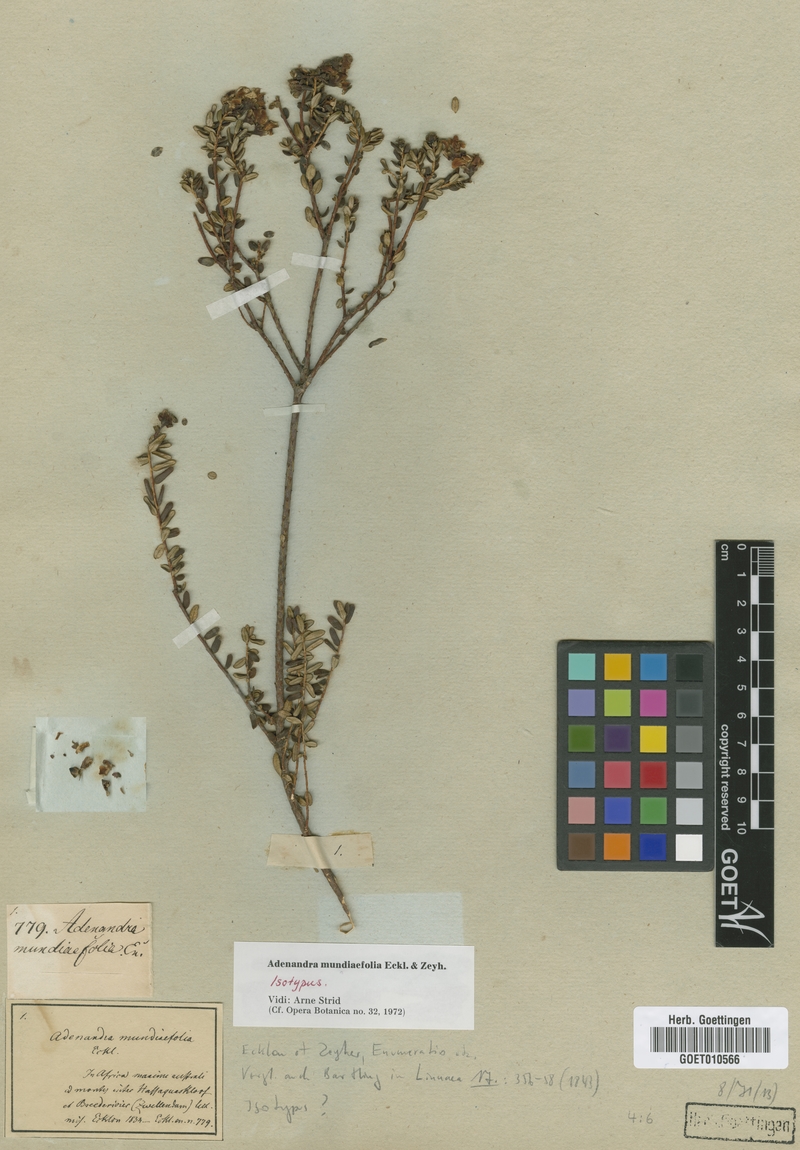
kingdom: Plantae
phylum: Tracheophyta
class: Magnoliopsida
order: Sapindales
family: Rutaceae
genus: Adenandra
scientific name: Adenandra mundiaefolia
